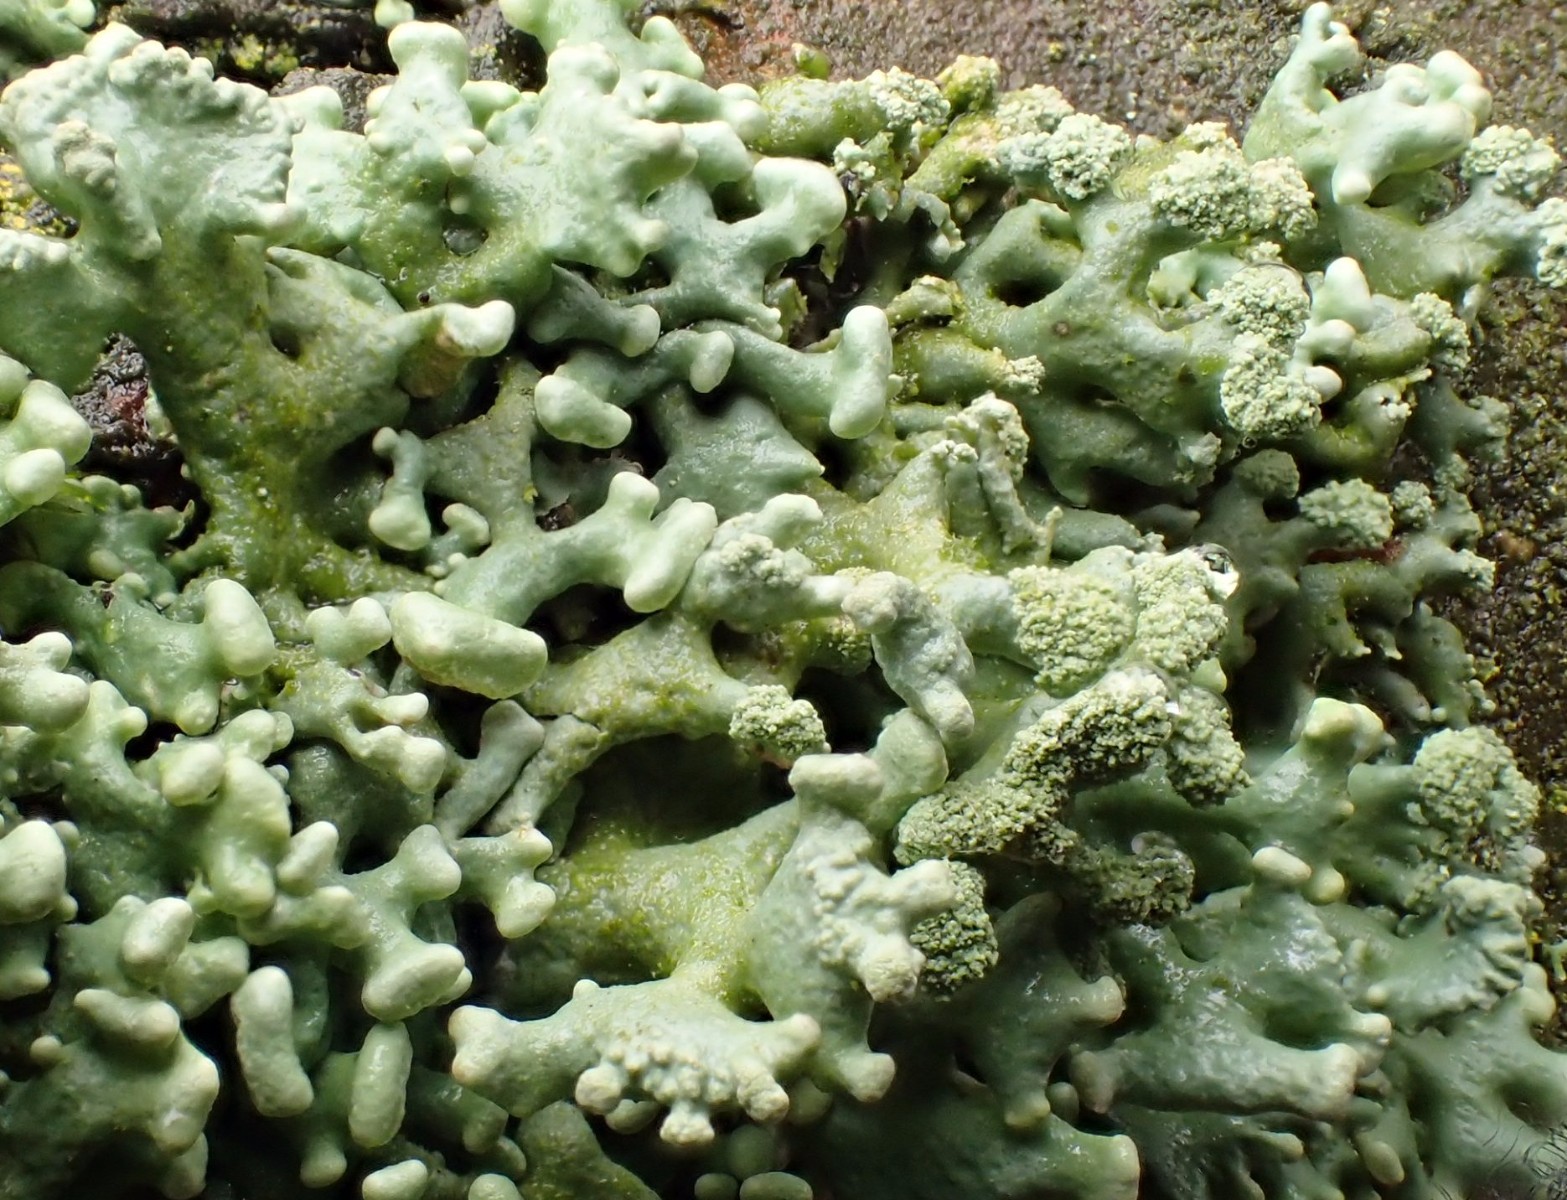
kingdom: Fungi
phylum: Ascomycota
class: Lecanoromycetes
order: Lecanorales
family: Parmeliaceae
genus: Hypogymnia
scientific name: Hypogymnia tubulosa
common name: finger-kvistlav
